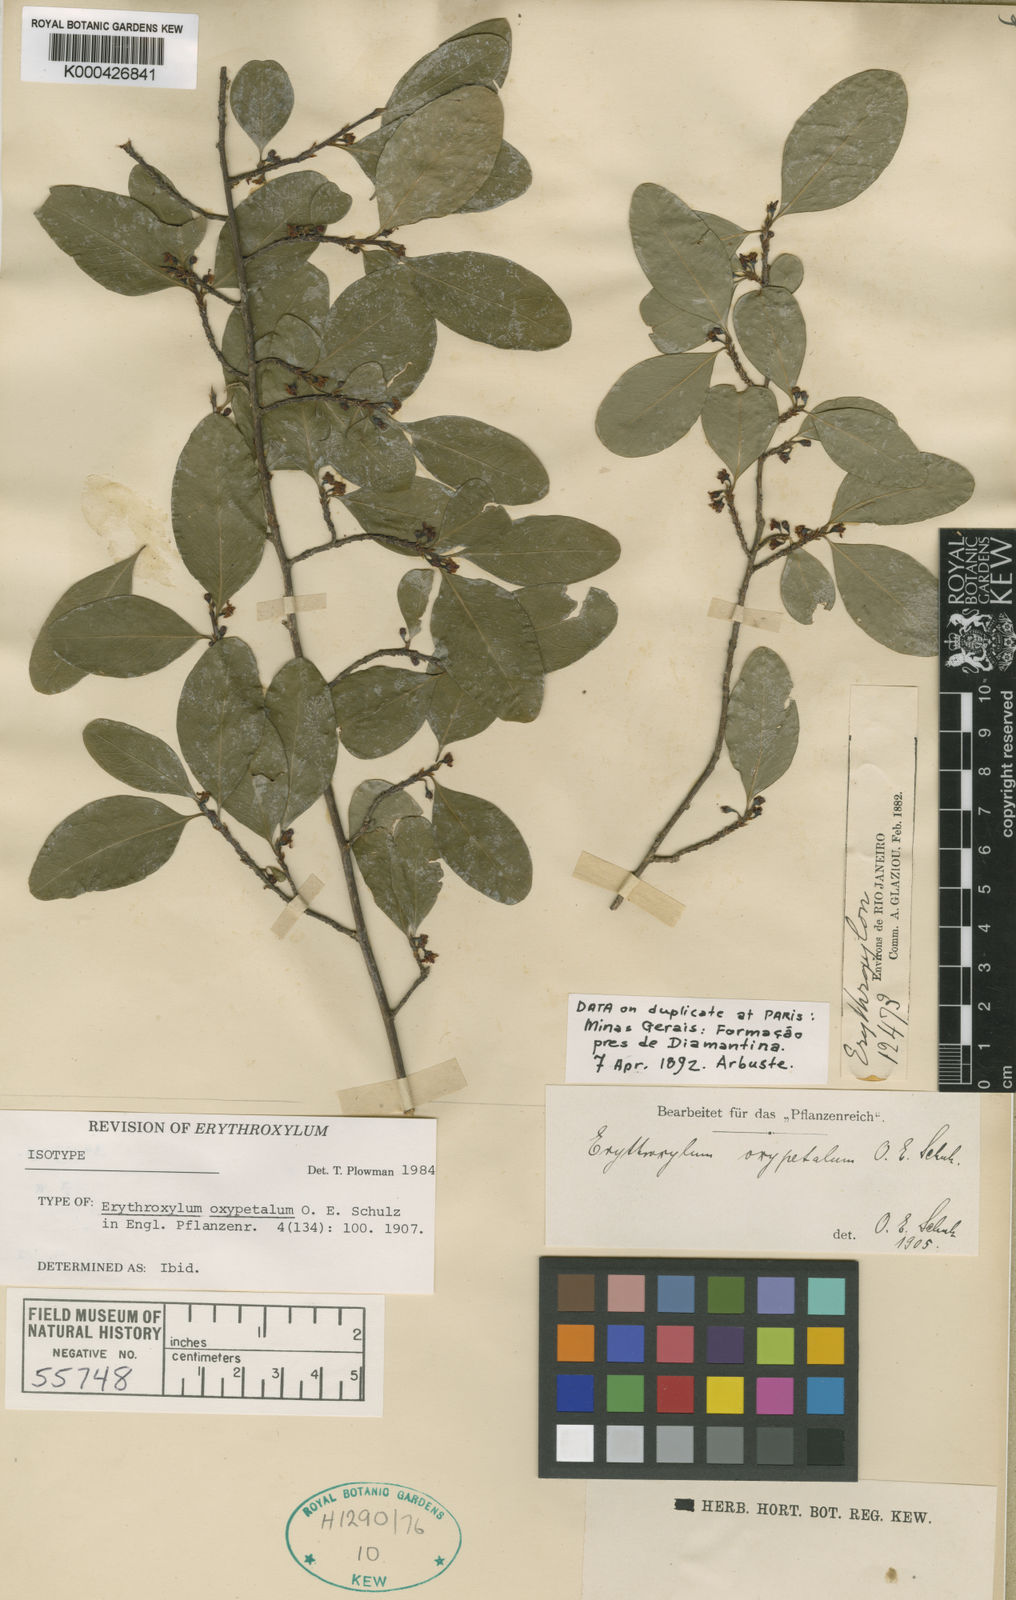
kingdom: Plantae
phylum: Tracheophyta
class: Magnoliopsida
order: Malpighiales
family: Erythroxylaceae
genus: Erythroxylum
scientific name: Erythroxylum oxypetalum
